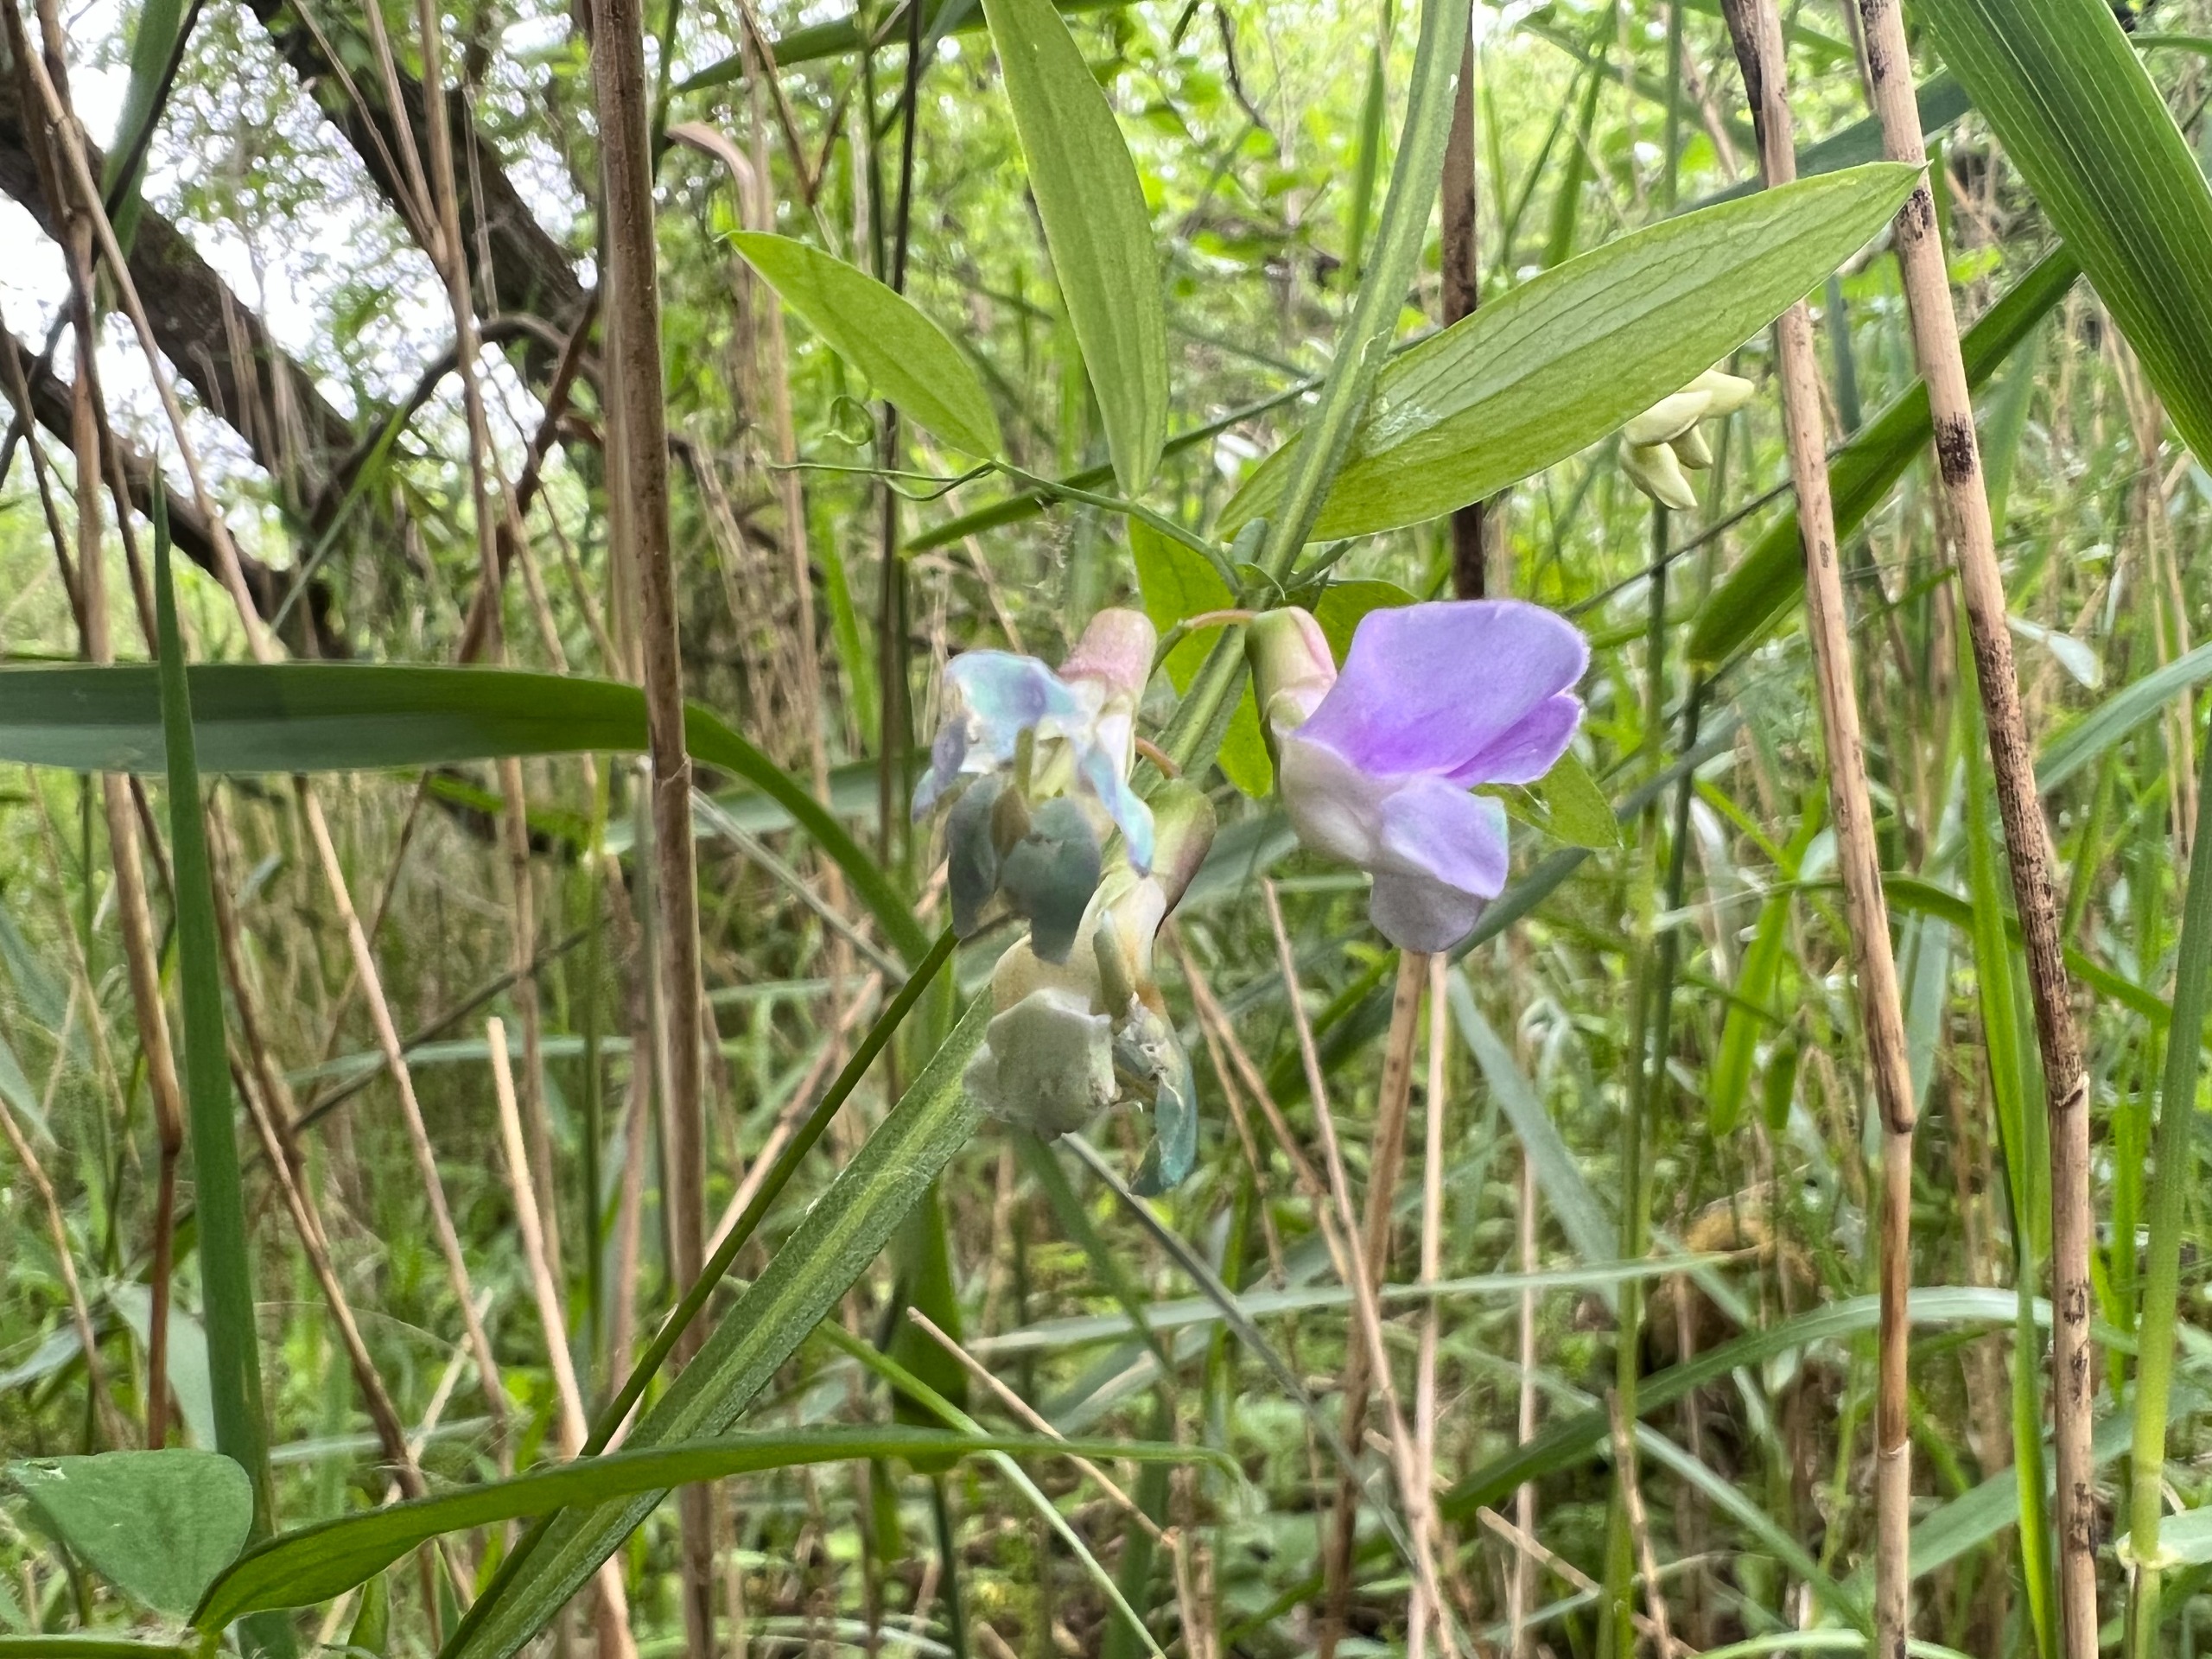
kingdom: Plantae
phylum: Tracheophyta
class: Magnoliopsida
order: Fabales
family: Fabaceae
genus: Lathyrus
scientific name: Lathyrus palustris
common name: Kær-fladbælg
